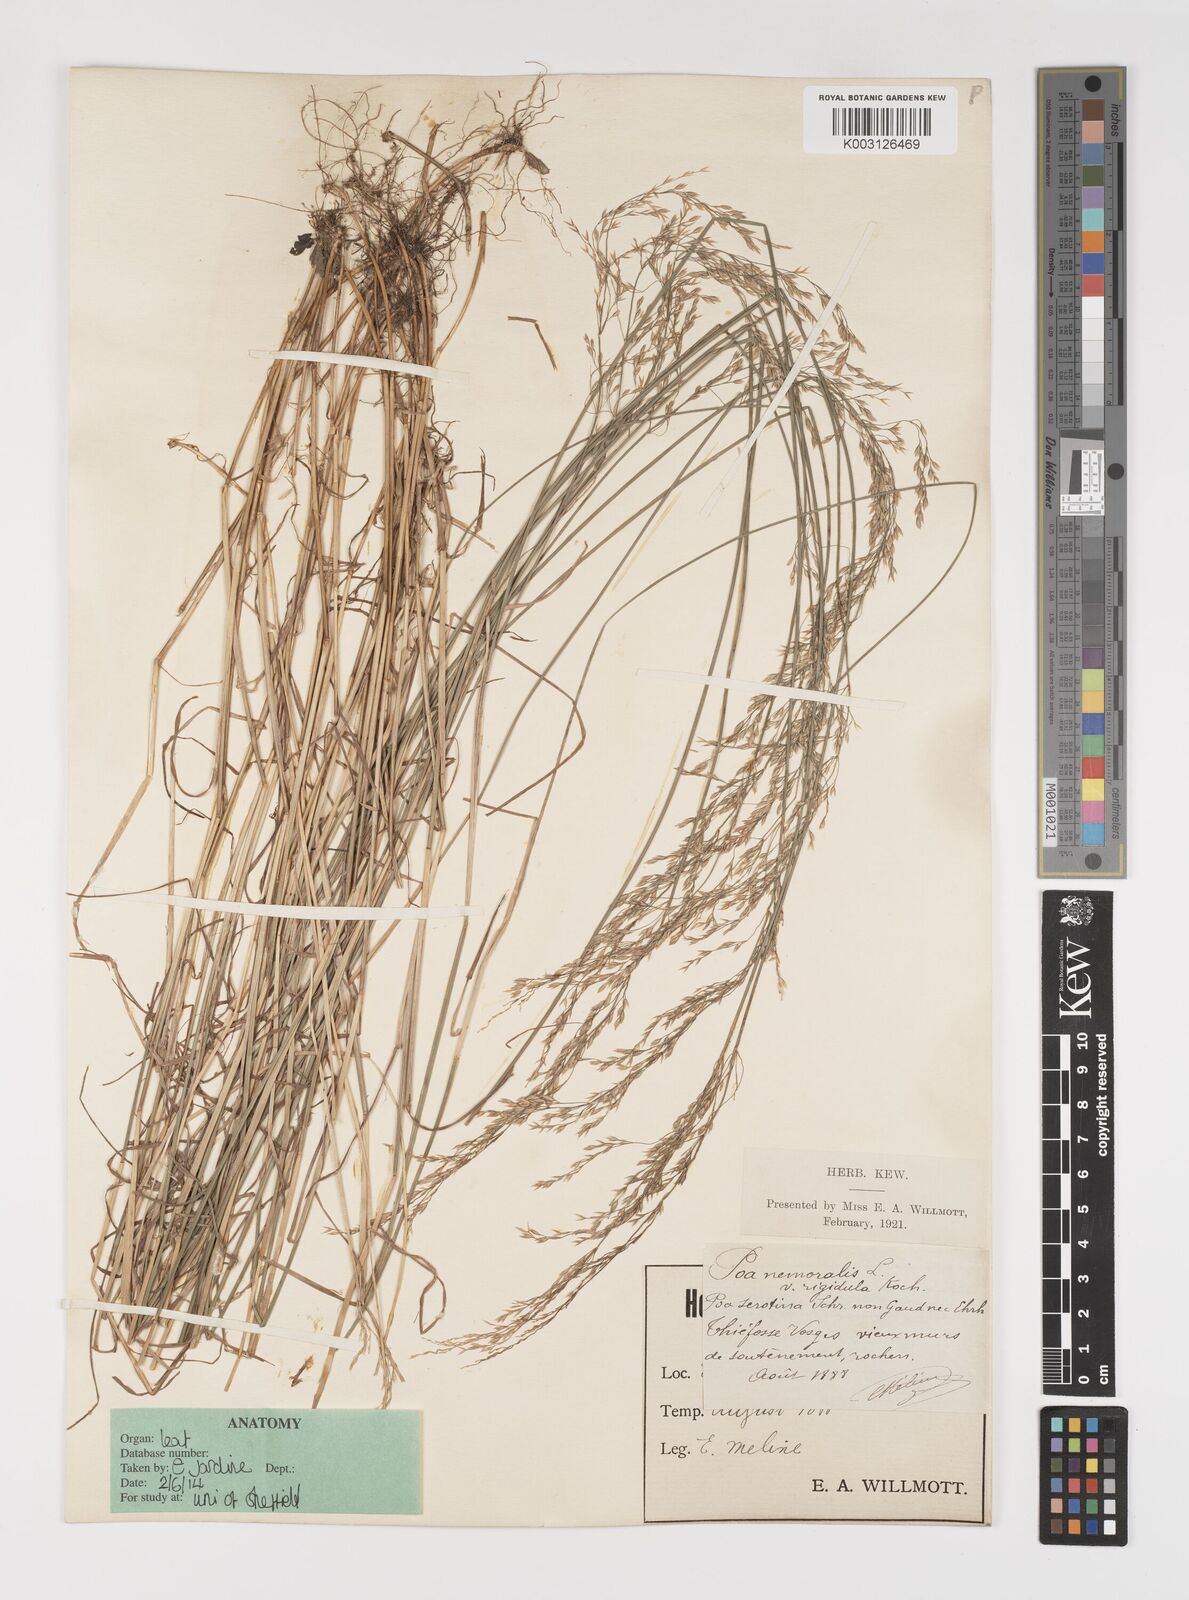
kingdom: Plantae
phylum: Tracheophyta
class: Liliopsida
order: Poales
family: Poaceae
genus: Poa
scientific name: Poa nemoralis
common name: Wood bluegrass
